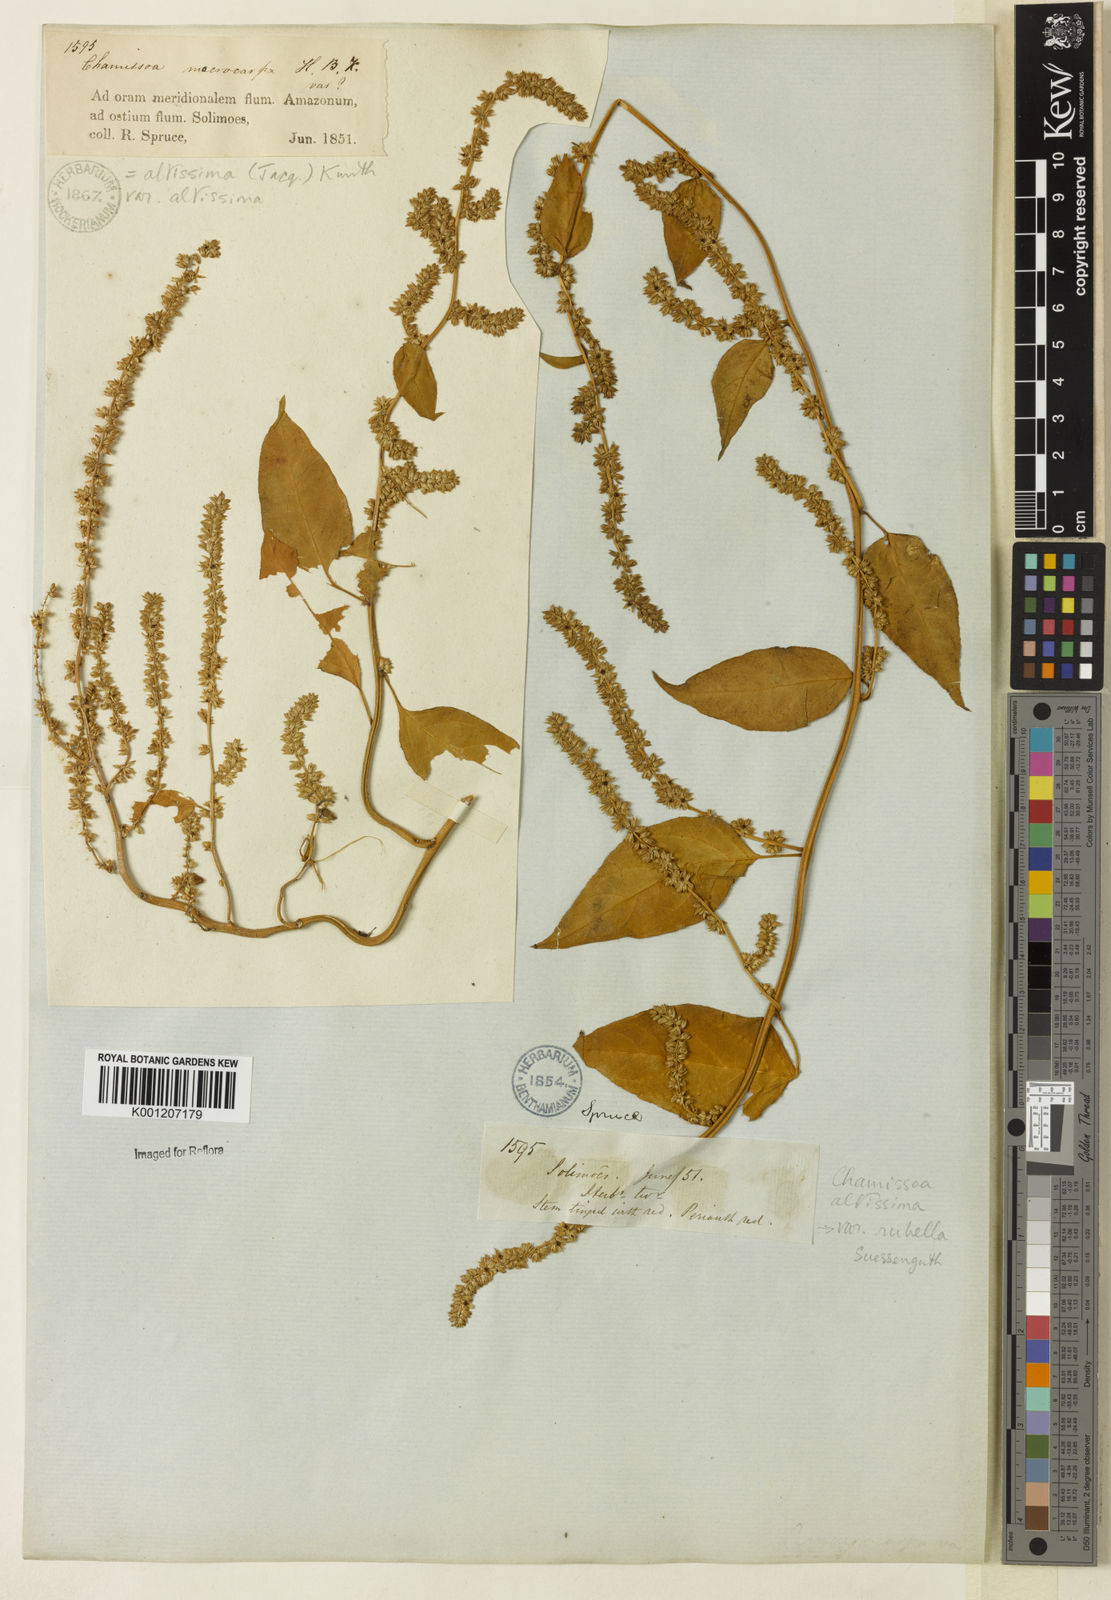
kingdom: Plantae
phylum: Tracheophyta
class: Magnoliopsida
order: Caryophyllales
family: Amaranthaceae
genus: Chamissoa
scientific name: Chamissoa altissima
